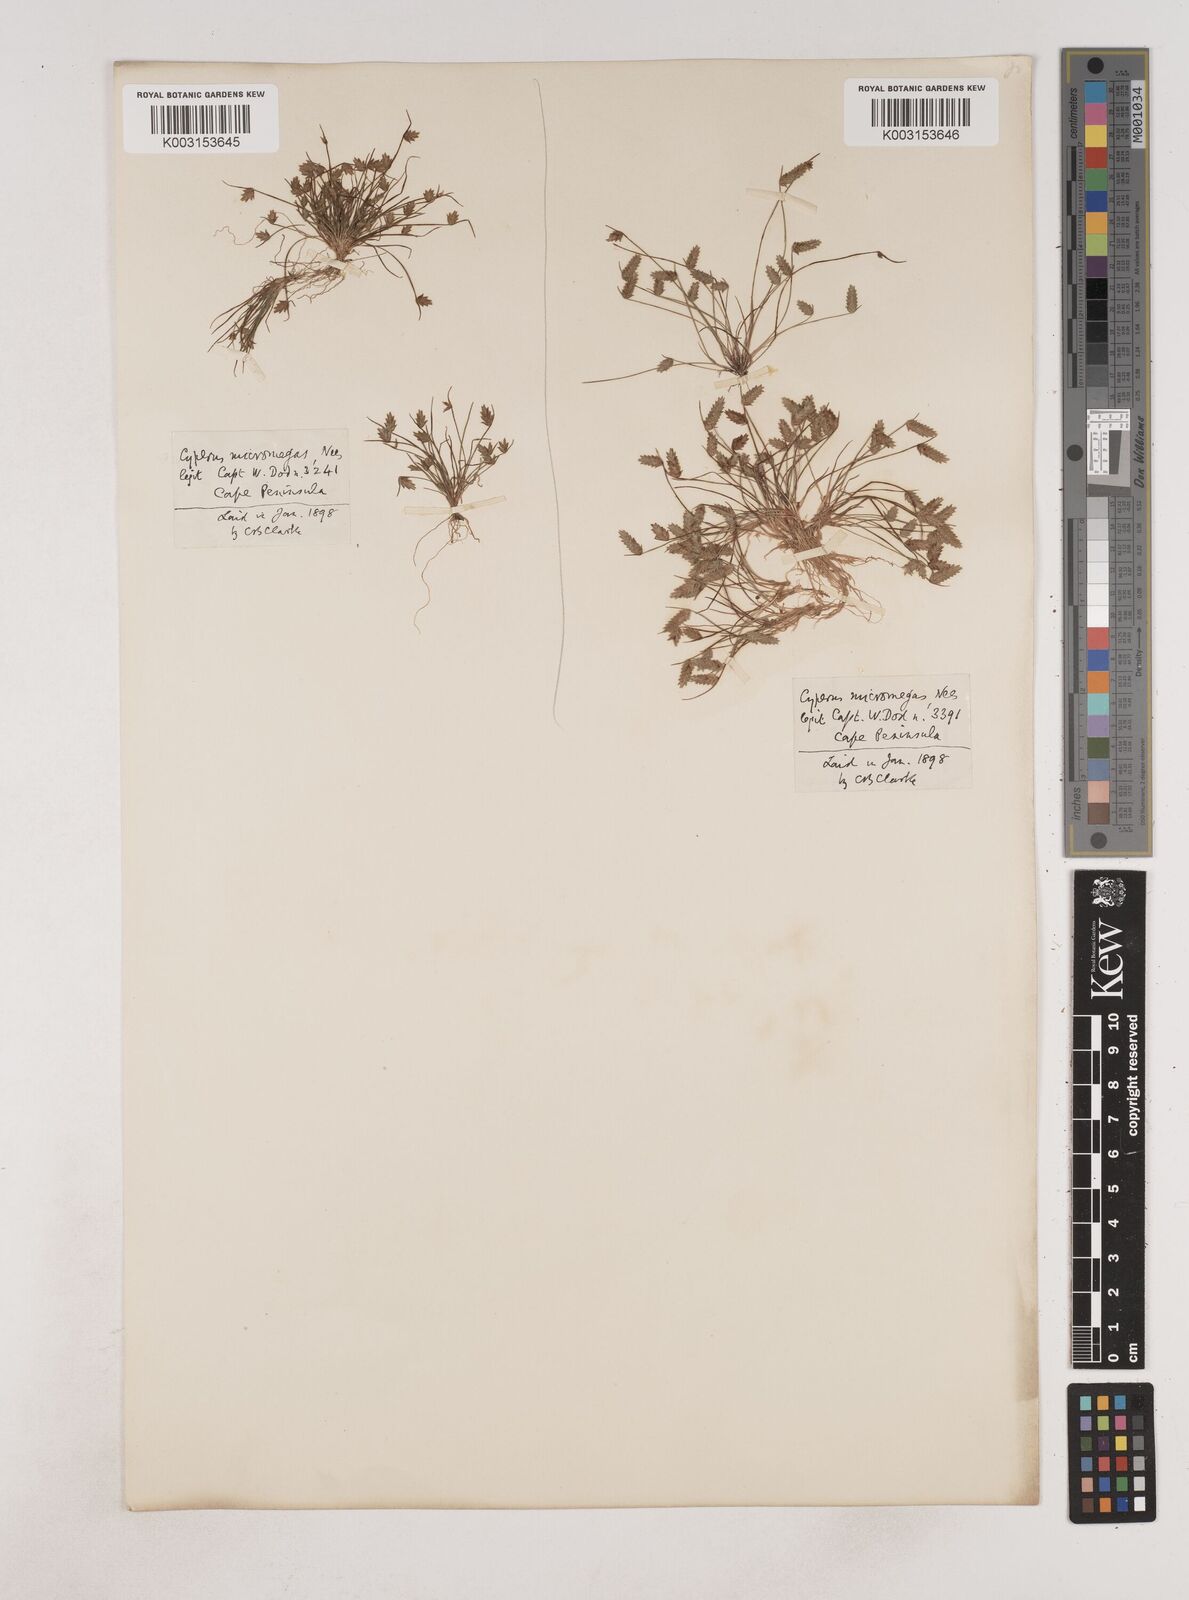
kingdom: Plantae
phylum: Tracheophyta
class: Liliopsida
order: Poales
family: Cyperaceae
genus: Isolepis
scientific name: Isolepis levynsiana
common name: Sedge
